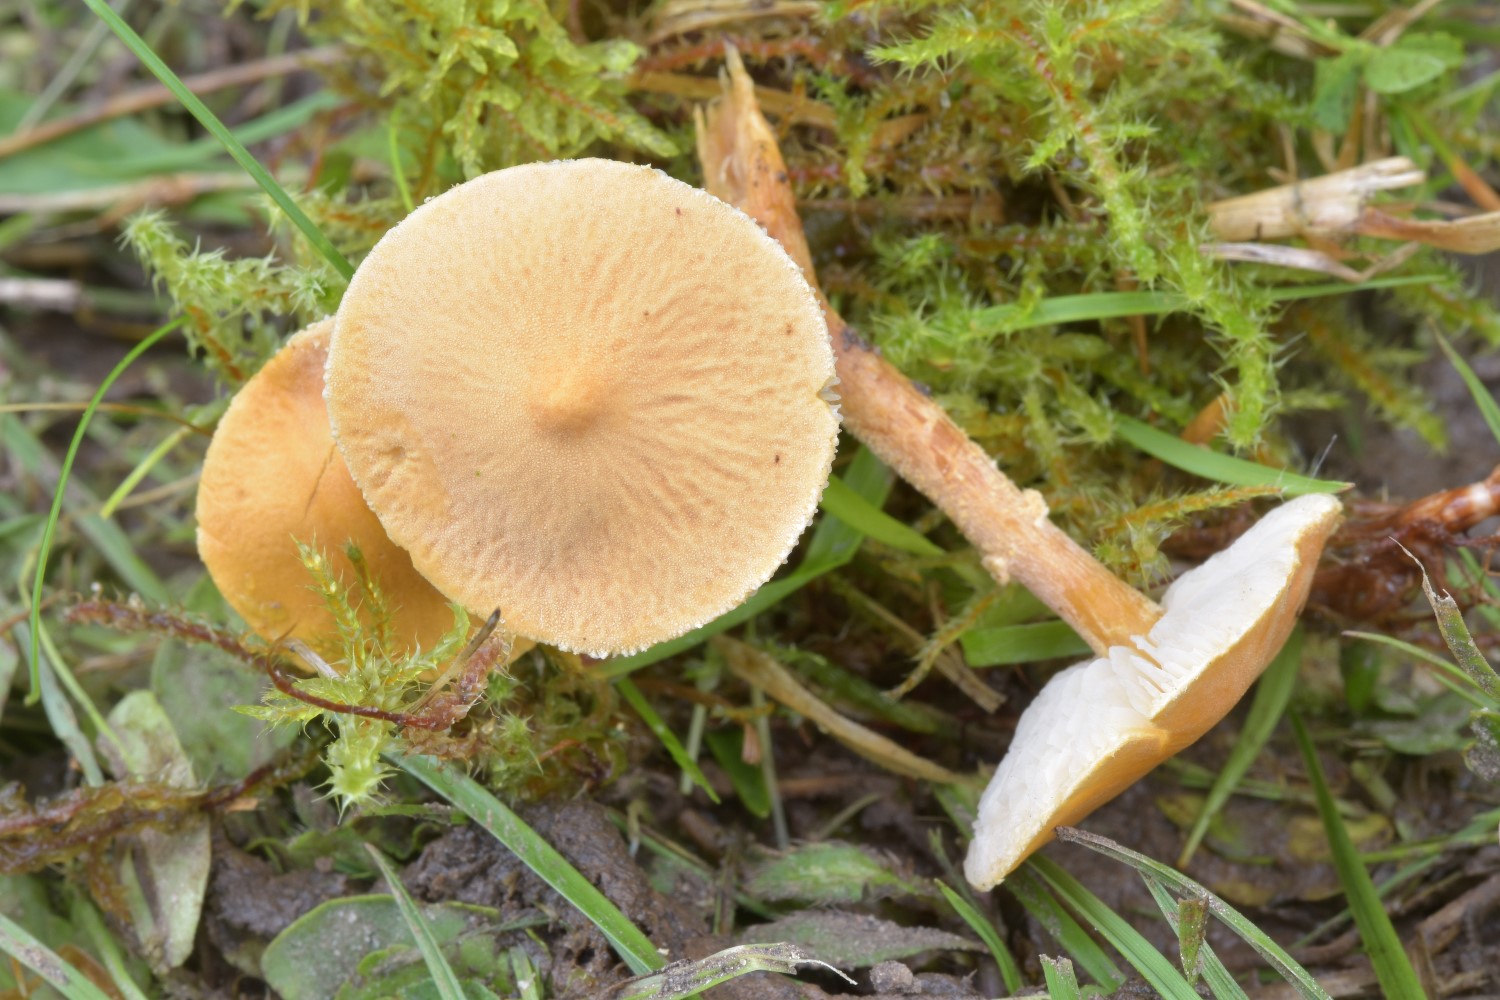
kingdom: Fungi
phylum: Basidiomycota
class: Agaricomycetes
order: Agaricales
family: Tricholomataceae
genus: Cystoderma
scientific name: Cystoderma amianthinum
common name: okkergul grynhat
